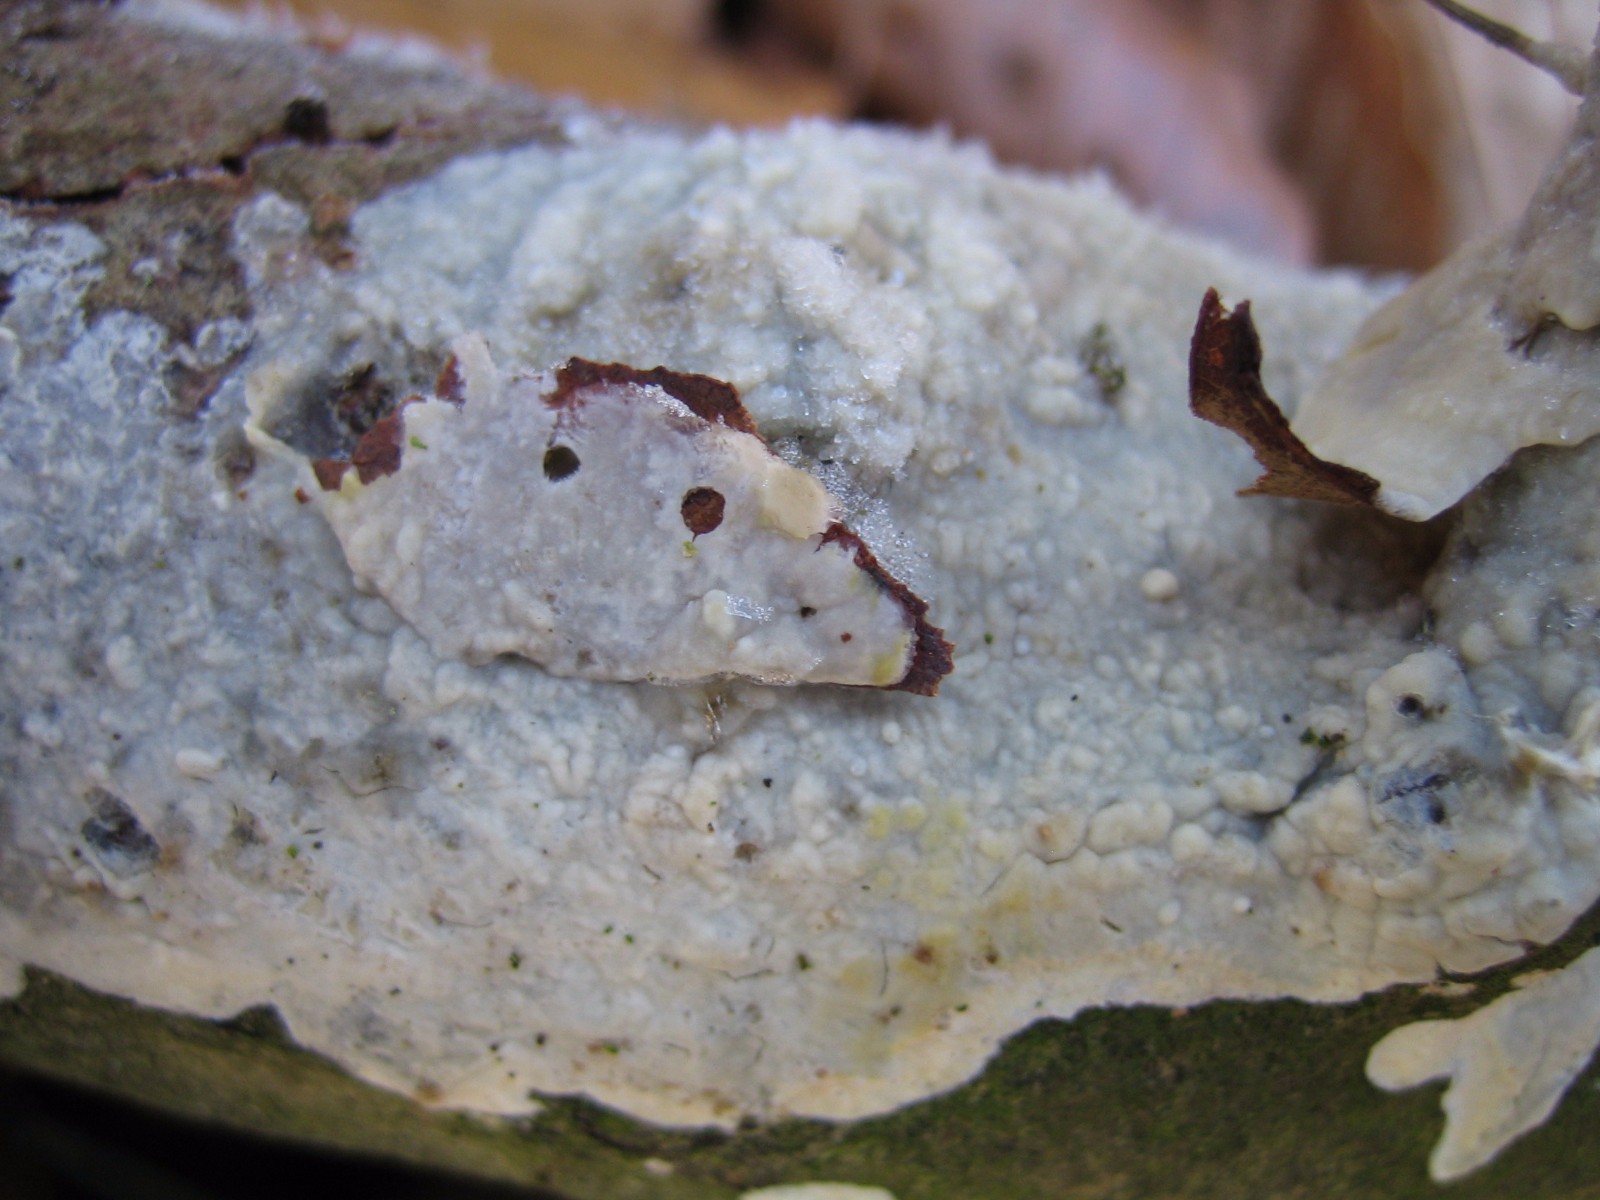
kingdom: Fungi
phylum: Basidiomycota
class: Agaricomycetes
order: Agaricales
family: Radulomycetaceae
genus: Radulomyces
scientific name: Radulomyces confluens
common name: glat naftalinskind
